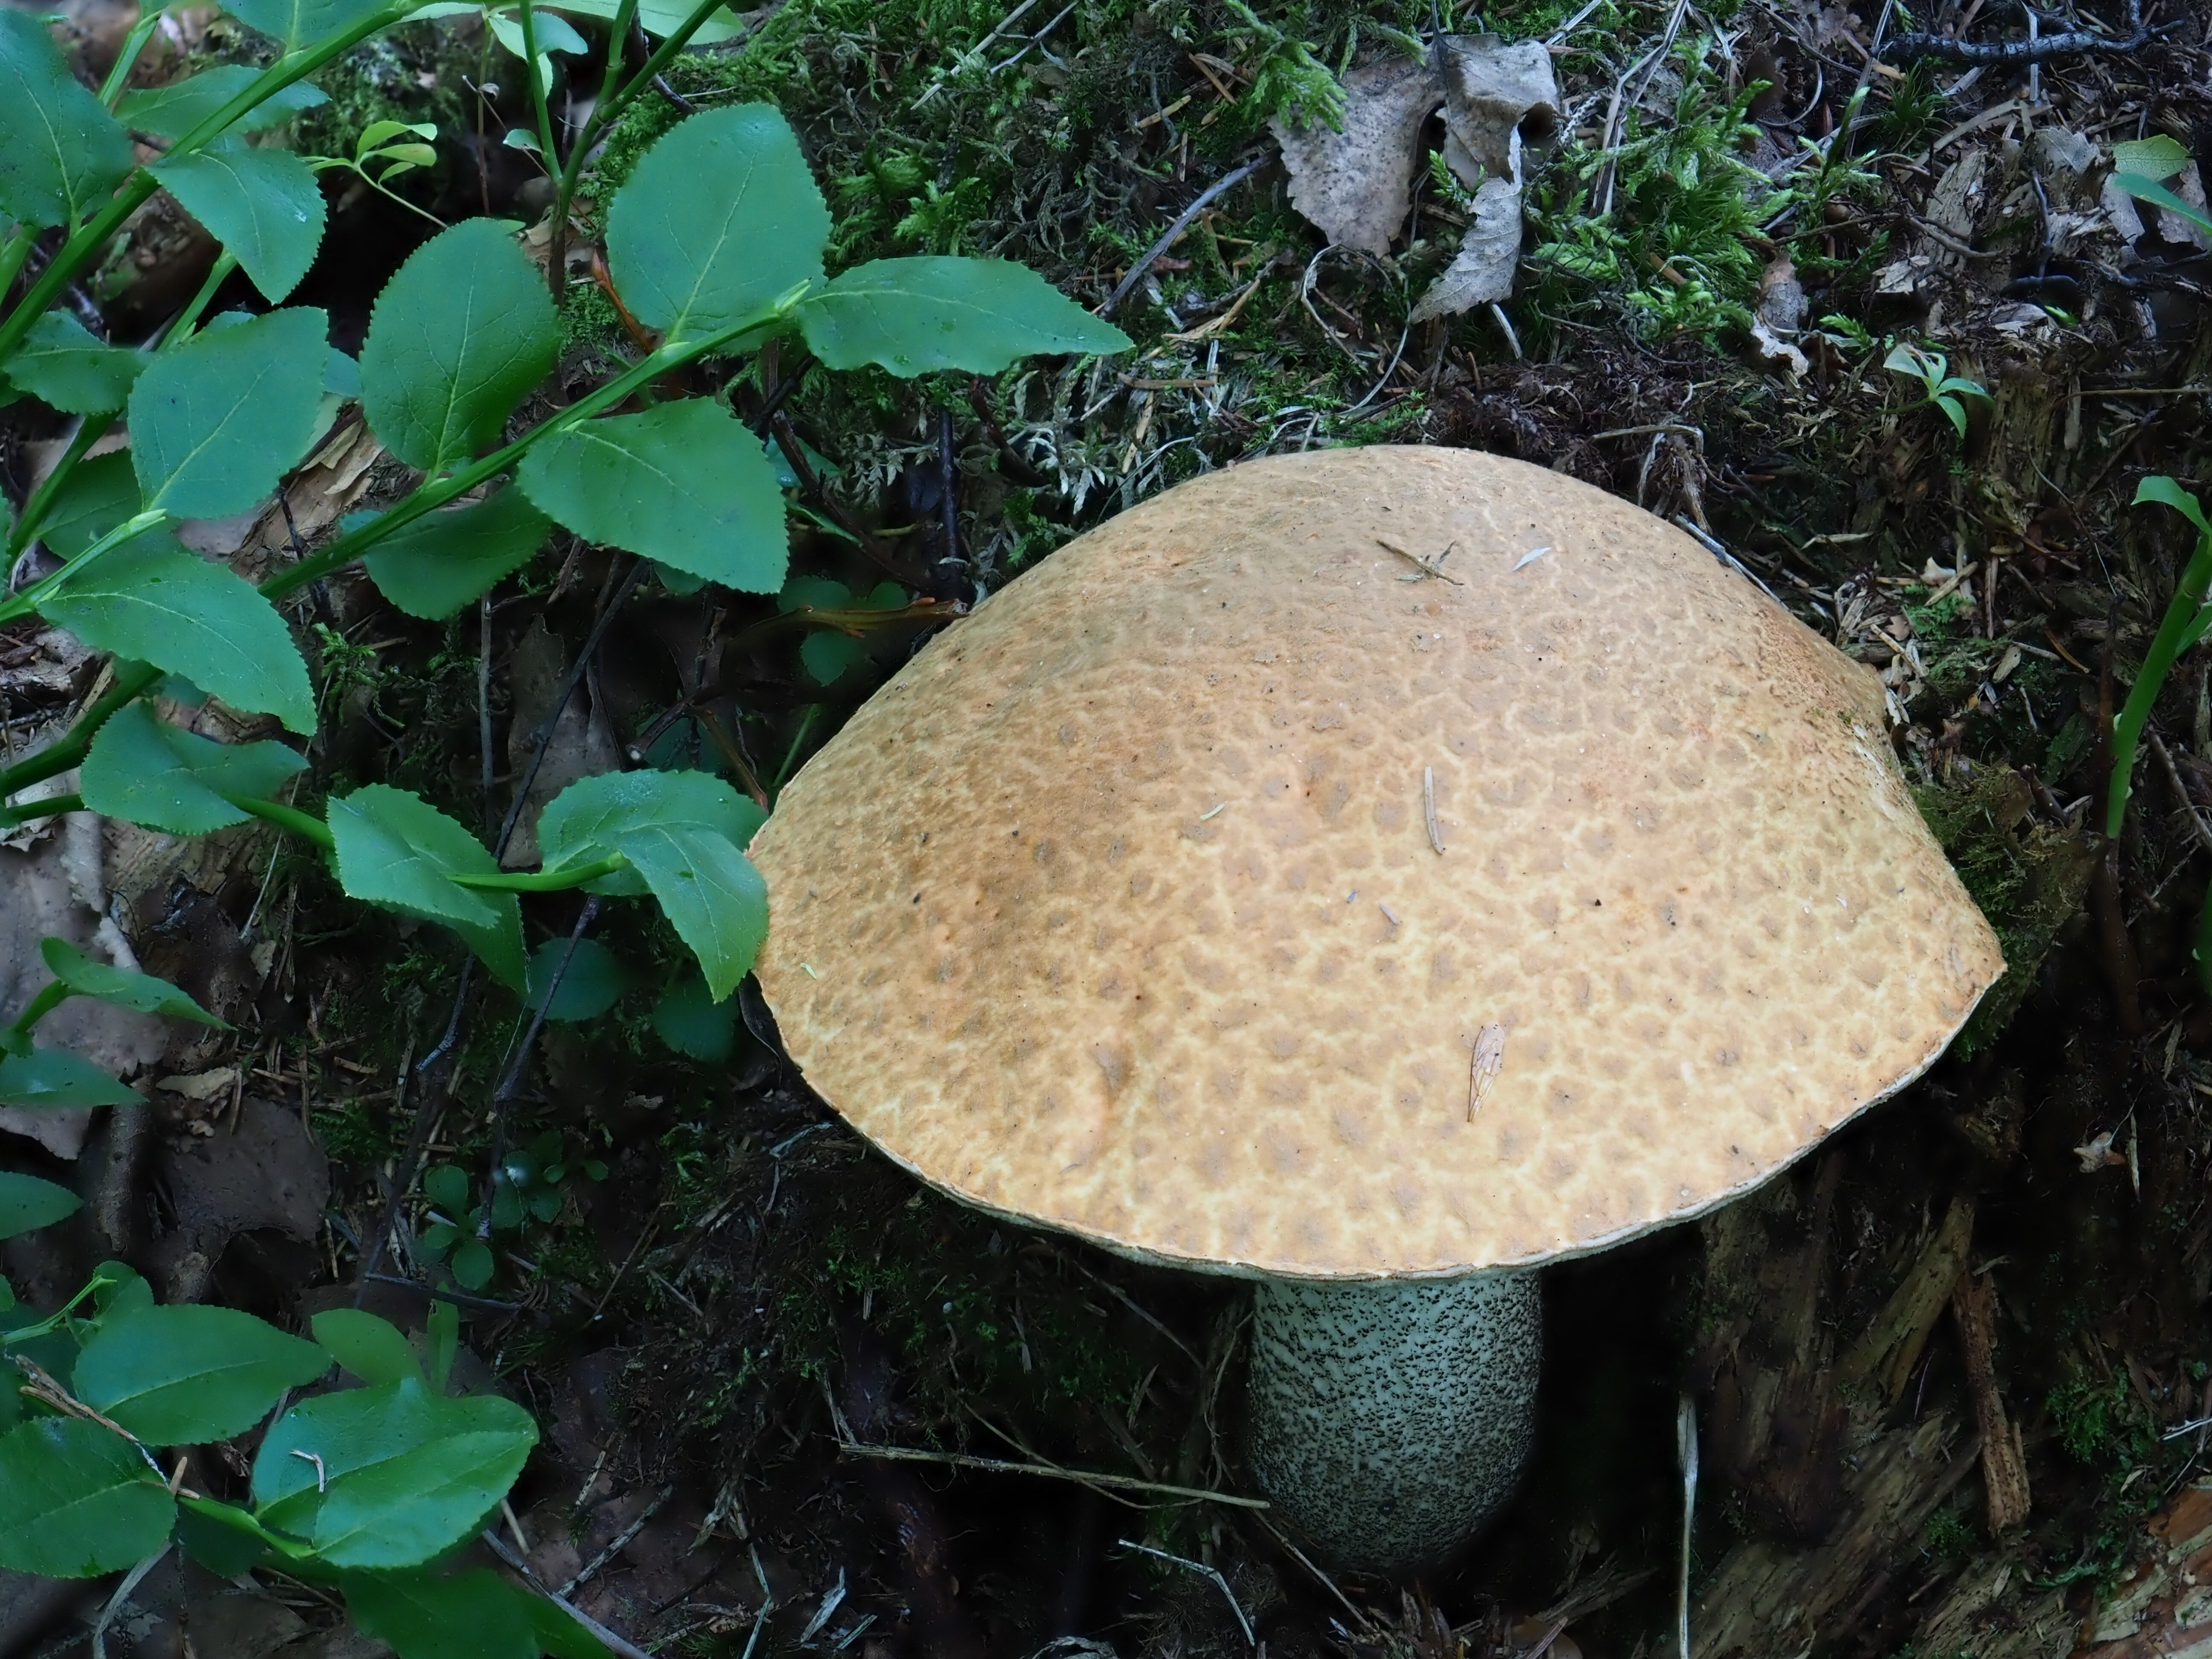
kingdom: Fungi
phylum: Basidiomycota
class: Agaricomycetes
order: Boletales
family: Boletaceae
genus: Leccinum
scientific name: Leccinum versipelle
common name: Orange birch bolete
